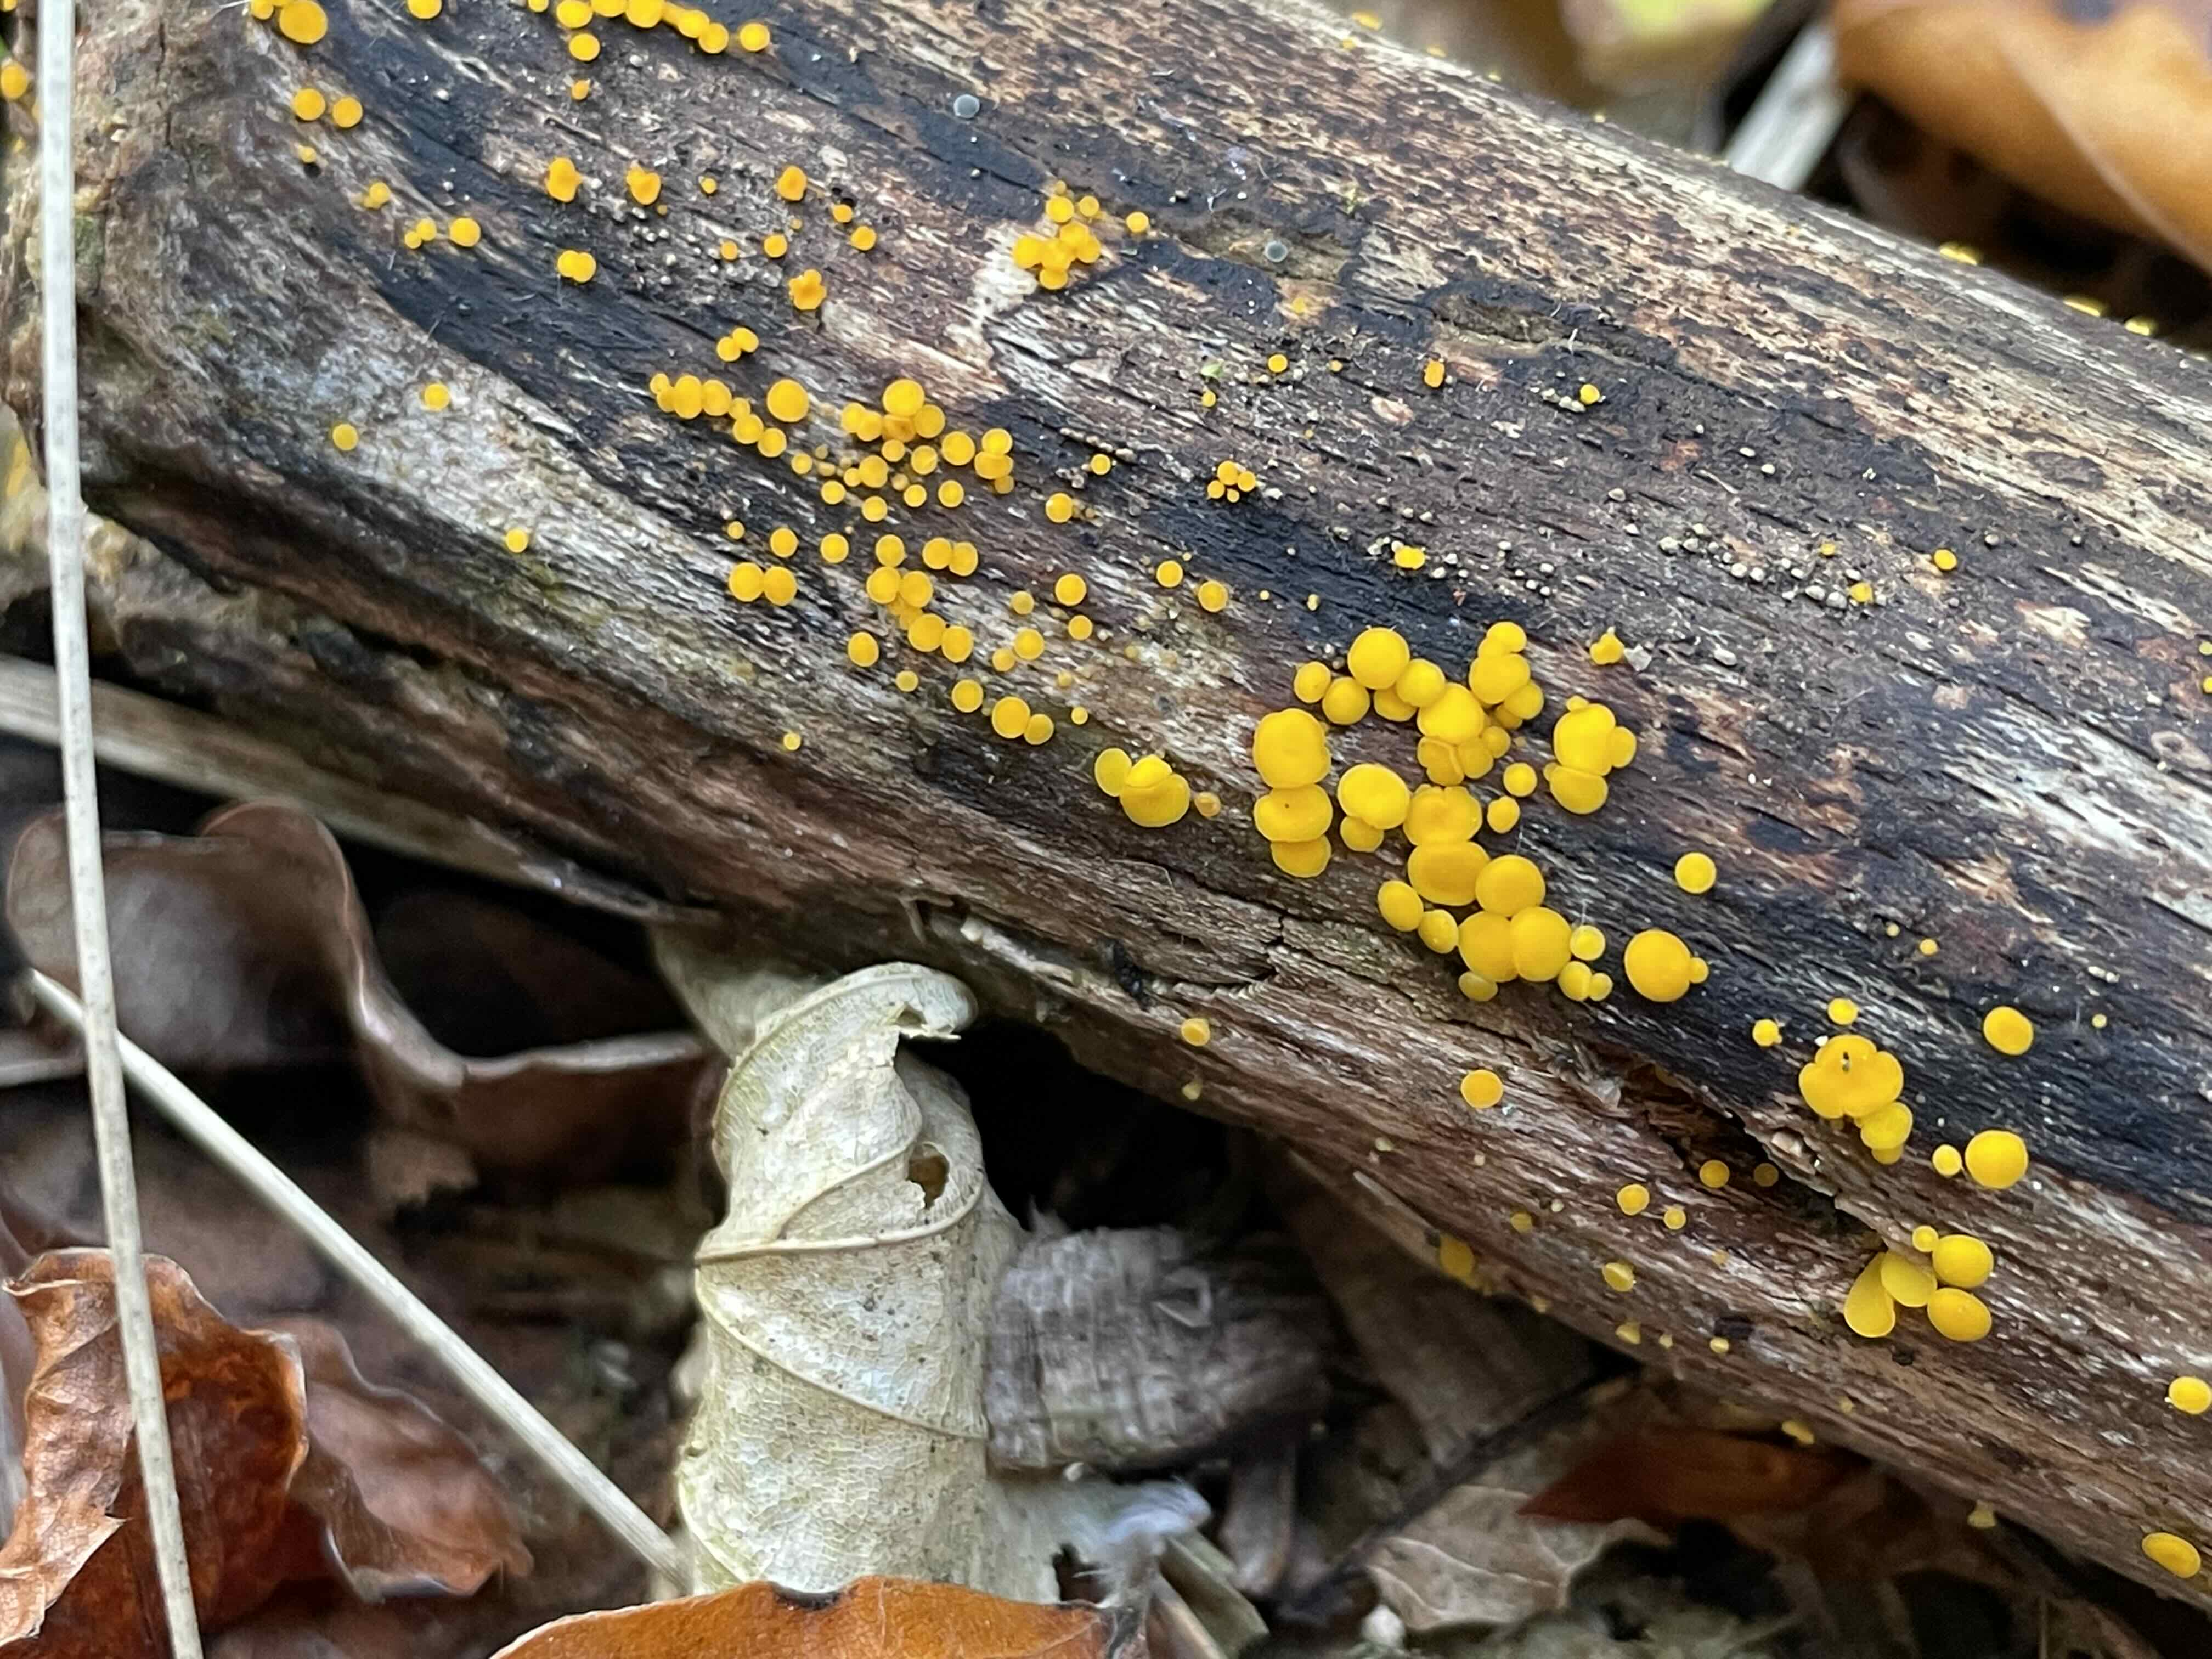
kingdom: Fungi
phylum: Ascomycota
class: Leotiomycetes
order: Helotiales
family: Pezizellaceae
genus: Calycina
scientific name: Calycina citrina
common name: almindelig gulskive
